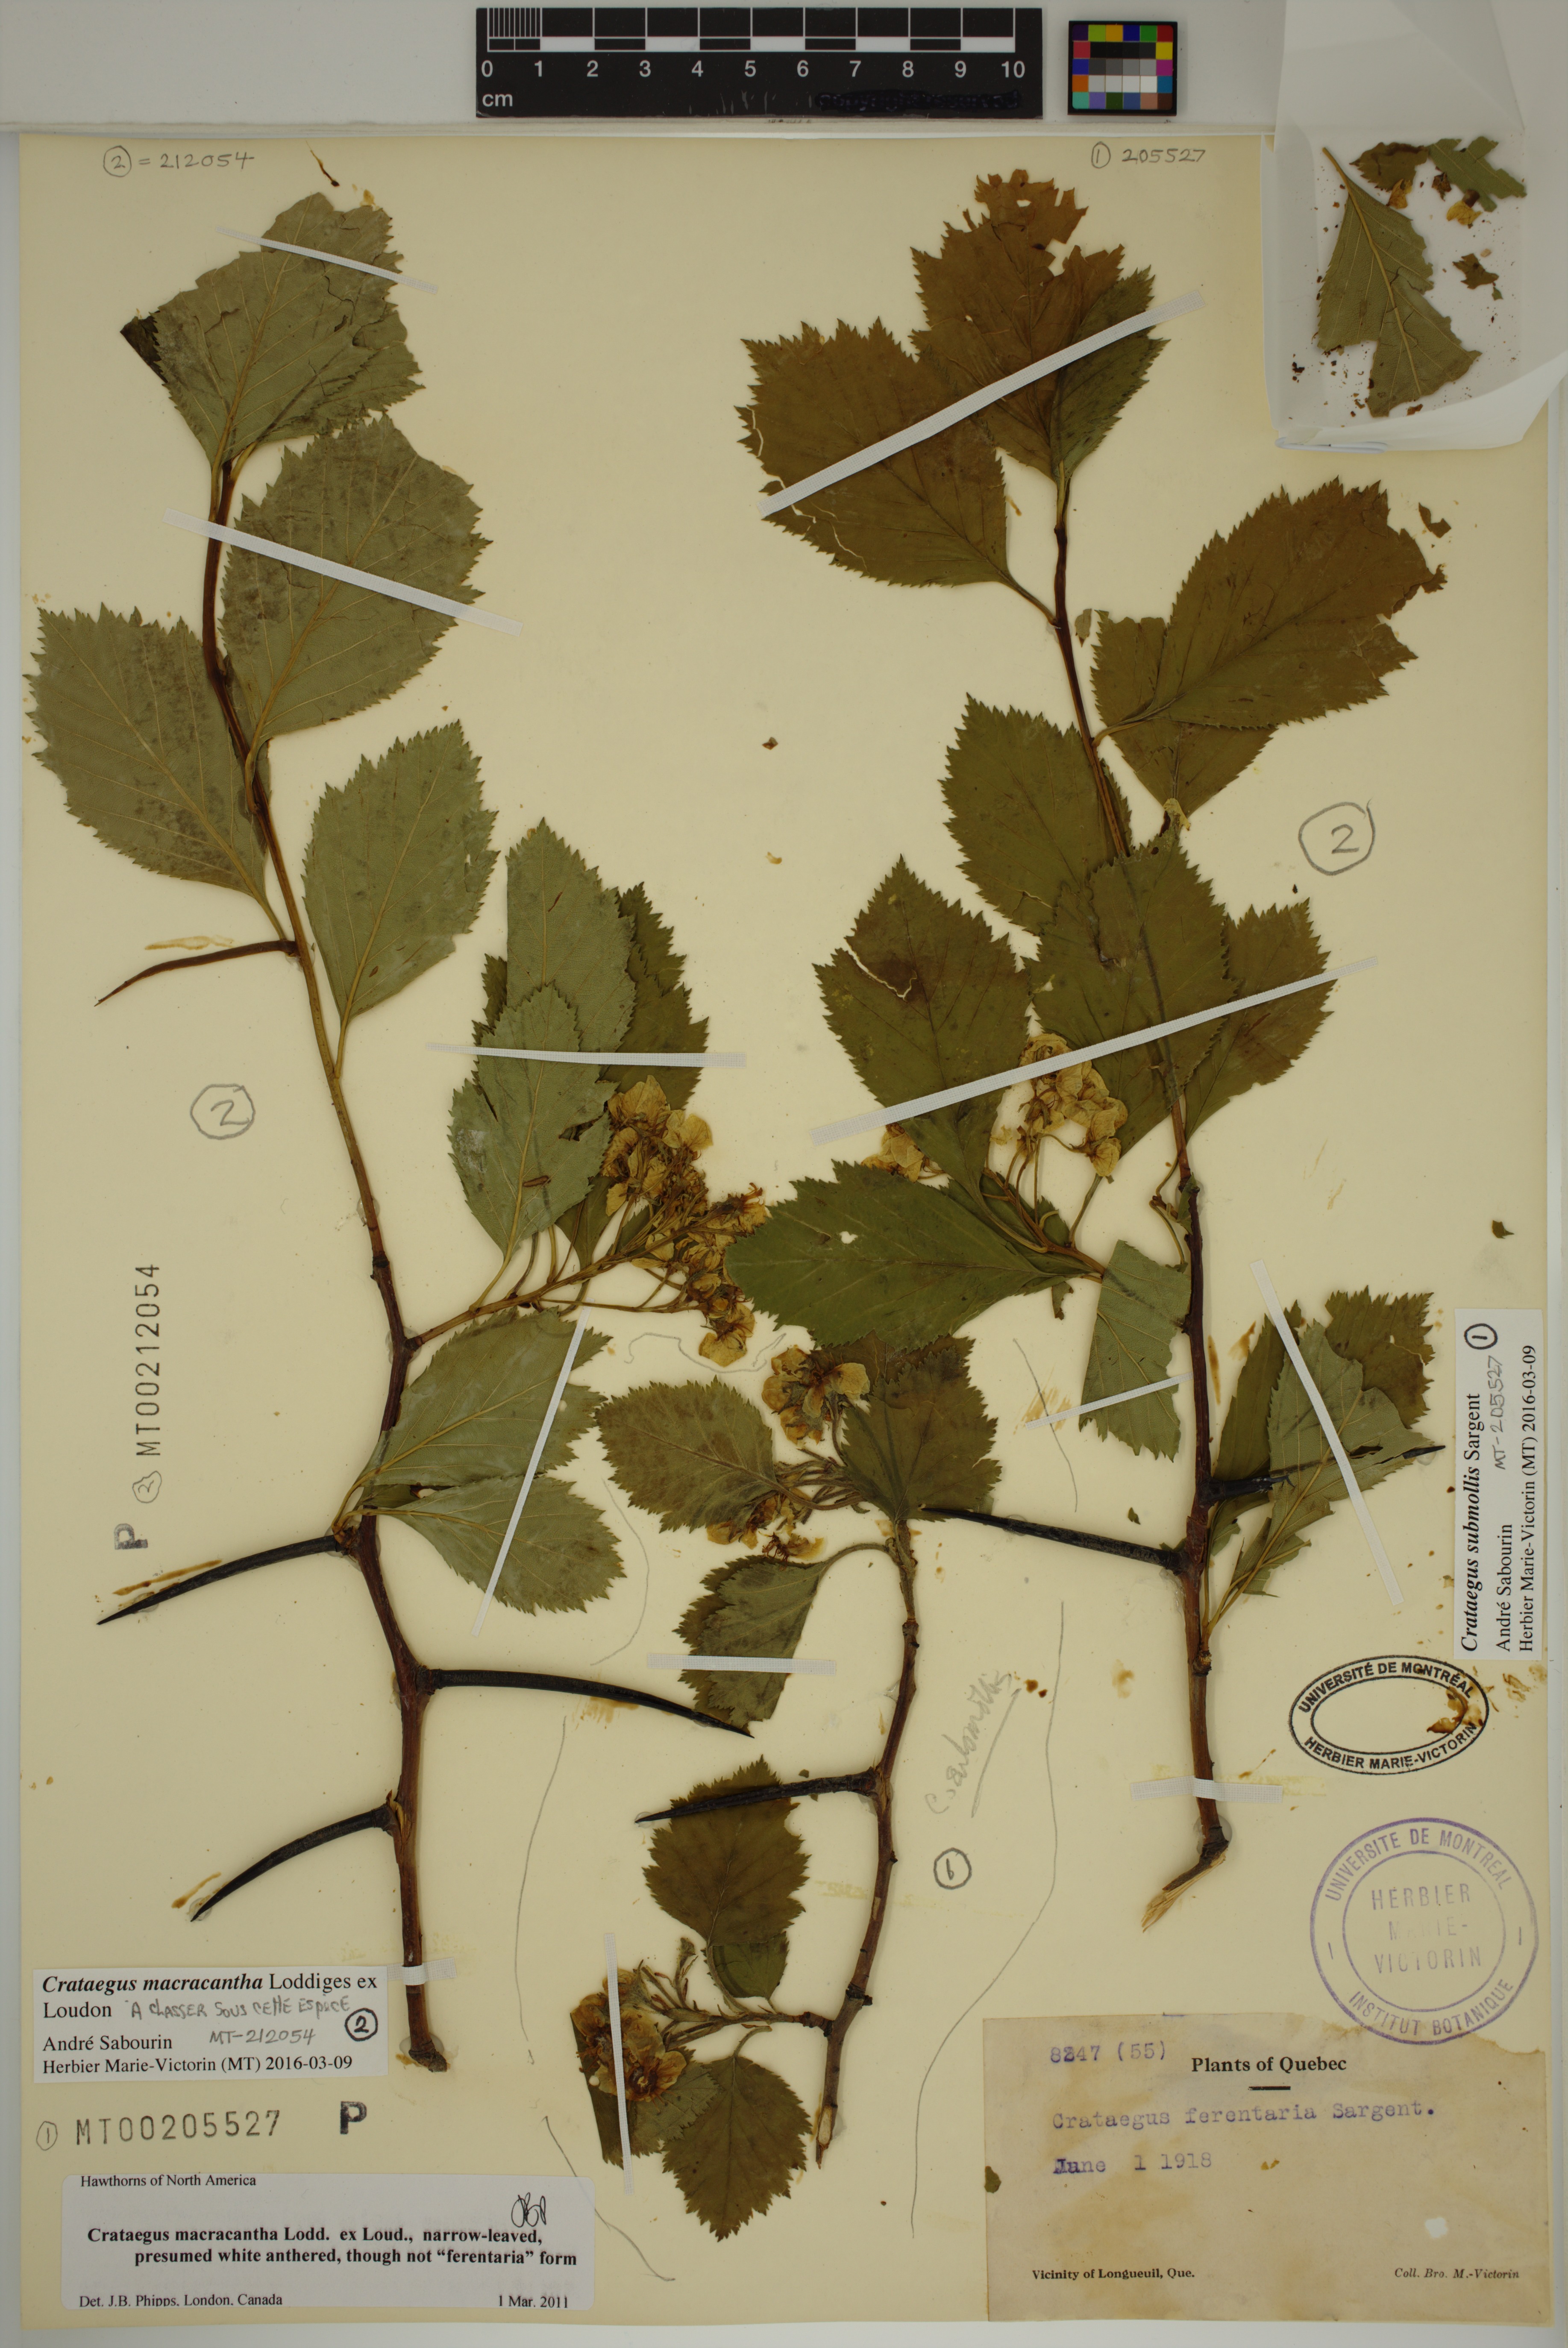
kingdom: Plantae
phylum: Tracheophyta
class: Magnoliopsida
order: Rosales
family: Rosaceae
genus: Crataegus
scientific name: Crataegus submollis
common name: Hairy cockspurthorn
